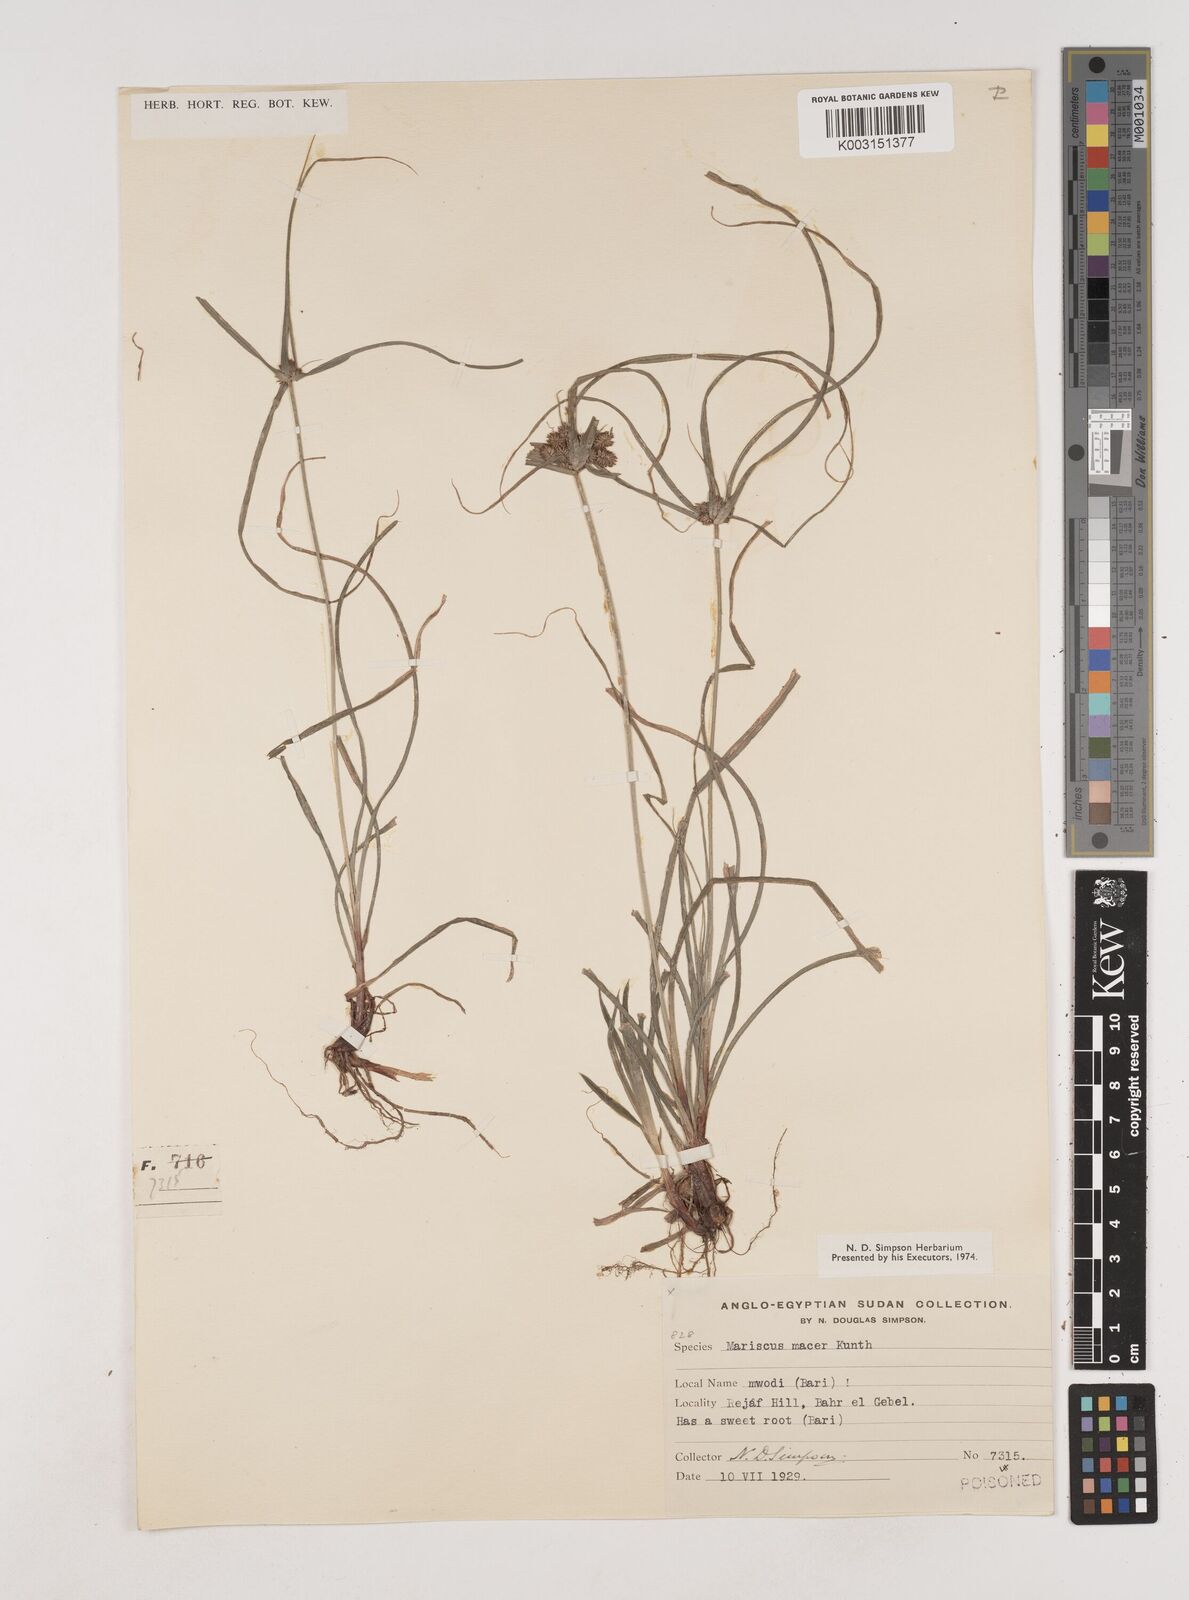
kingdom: Plantae
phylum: Tracheophyta
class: Liliopsida
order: Poales
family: Cyperaceae
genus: Cyperus
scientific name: Cyperus cyperoides
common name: Pacific island flat sedge
